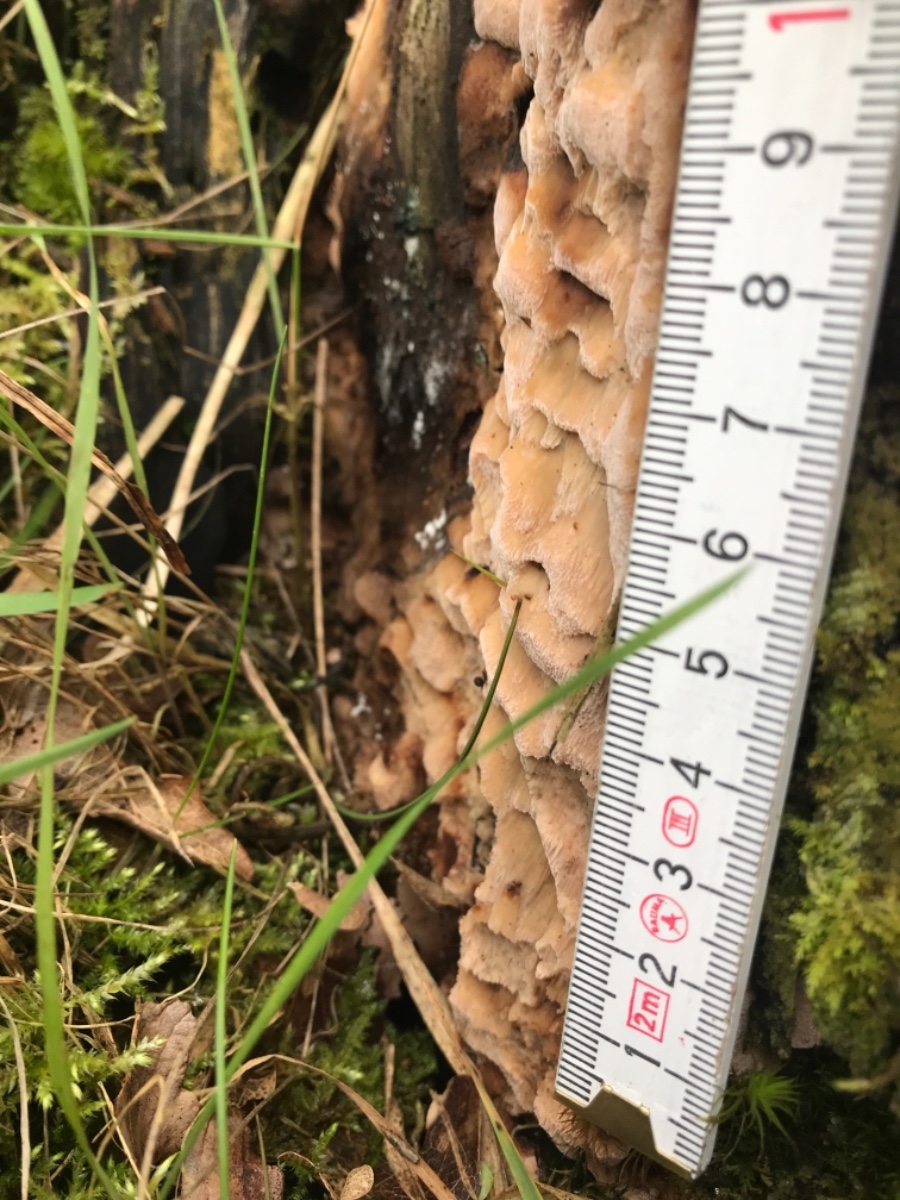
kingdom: Fungi
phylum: Basidiomycota
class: Agaricomycetes
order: Polyporales
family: Fomitopsidaceae
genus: Neoantrodia
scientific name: Neoantrodia serialis
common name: række-sejporesvamp
